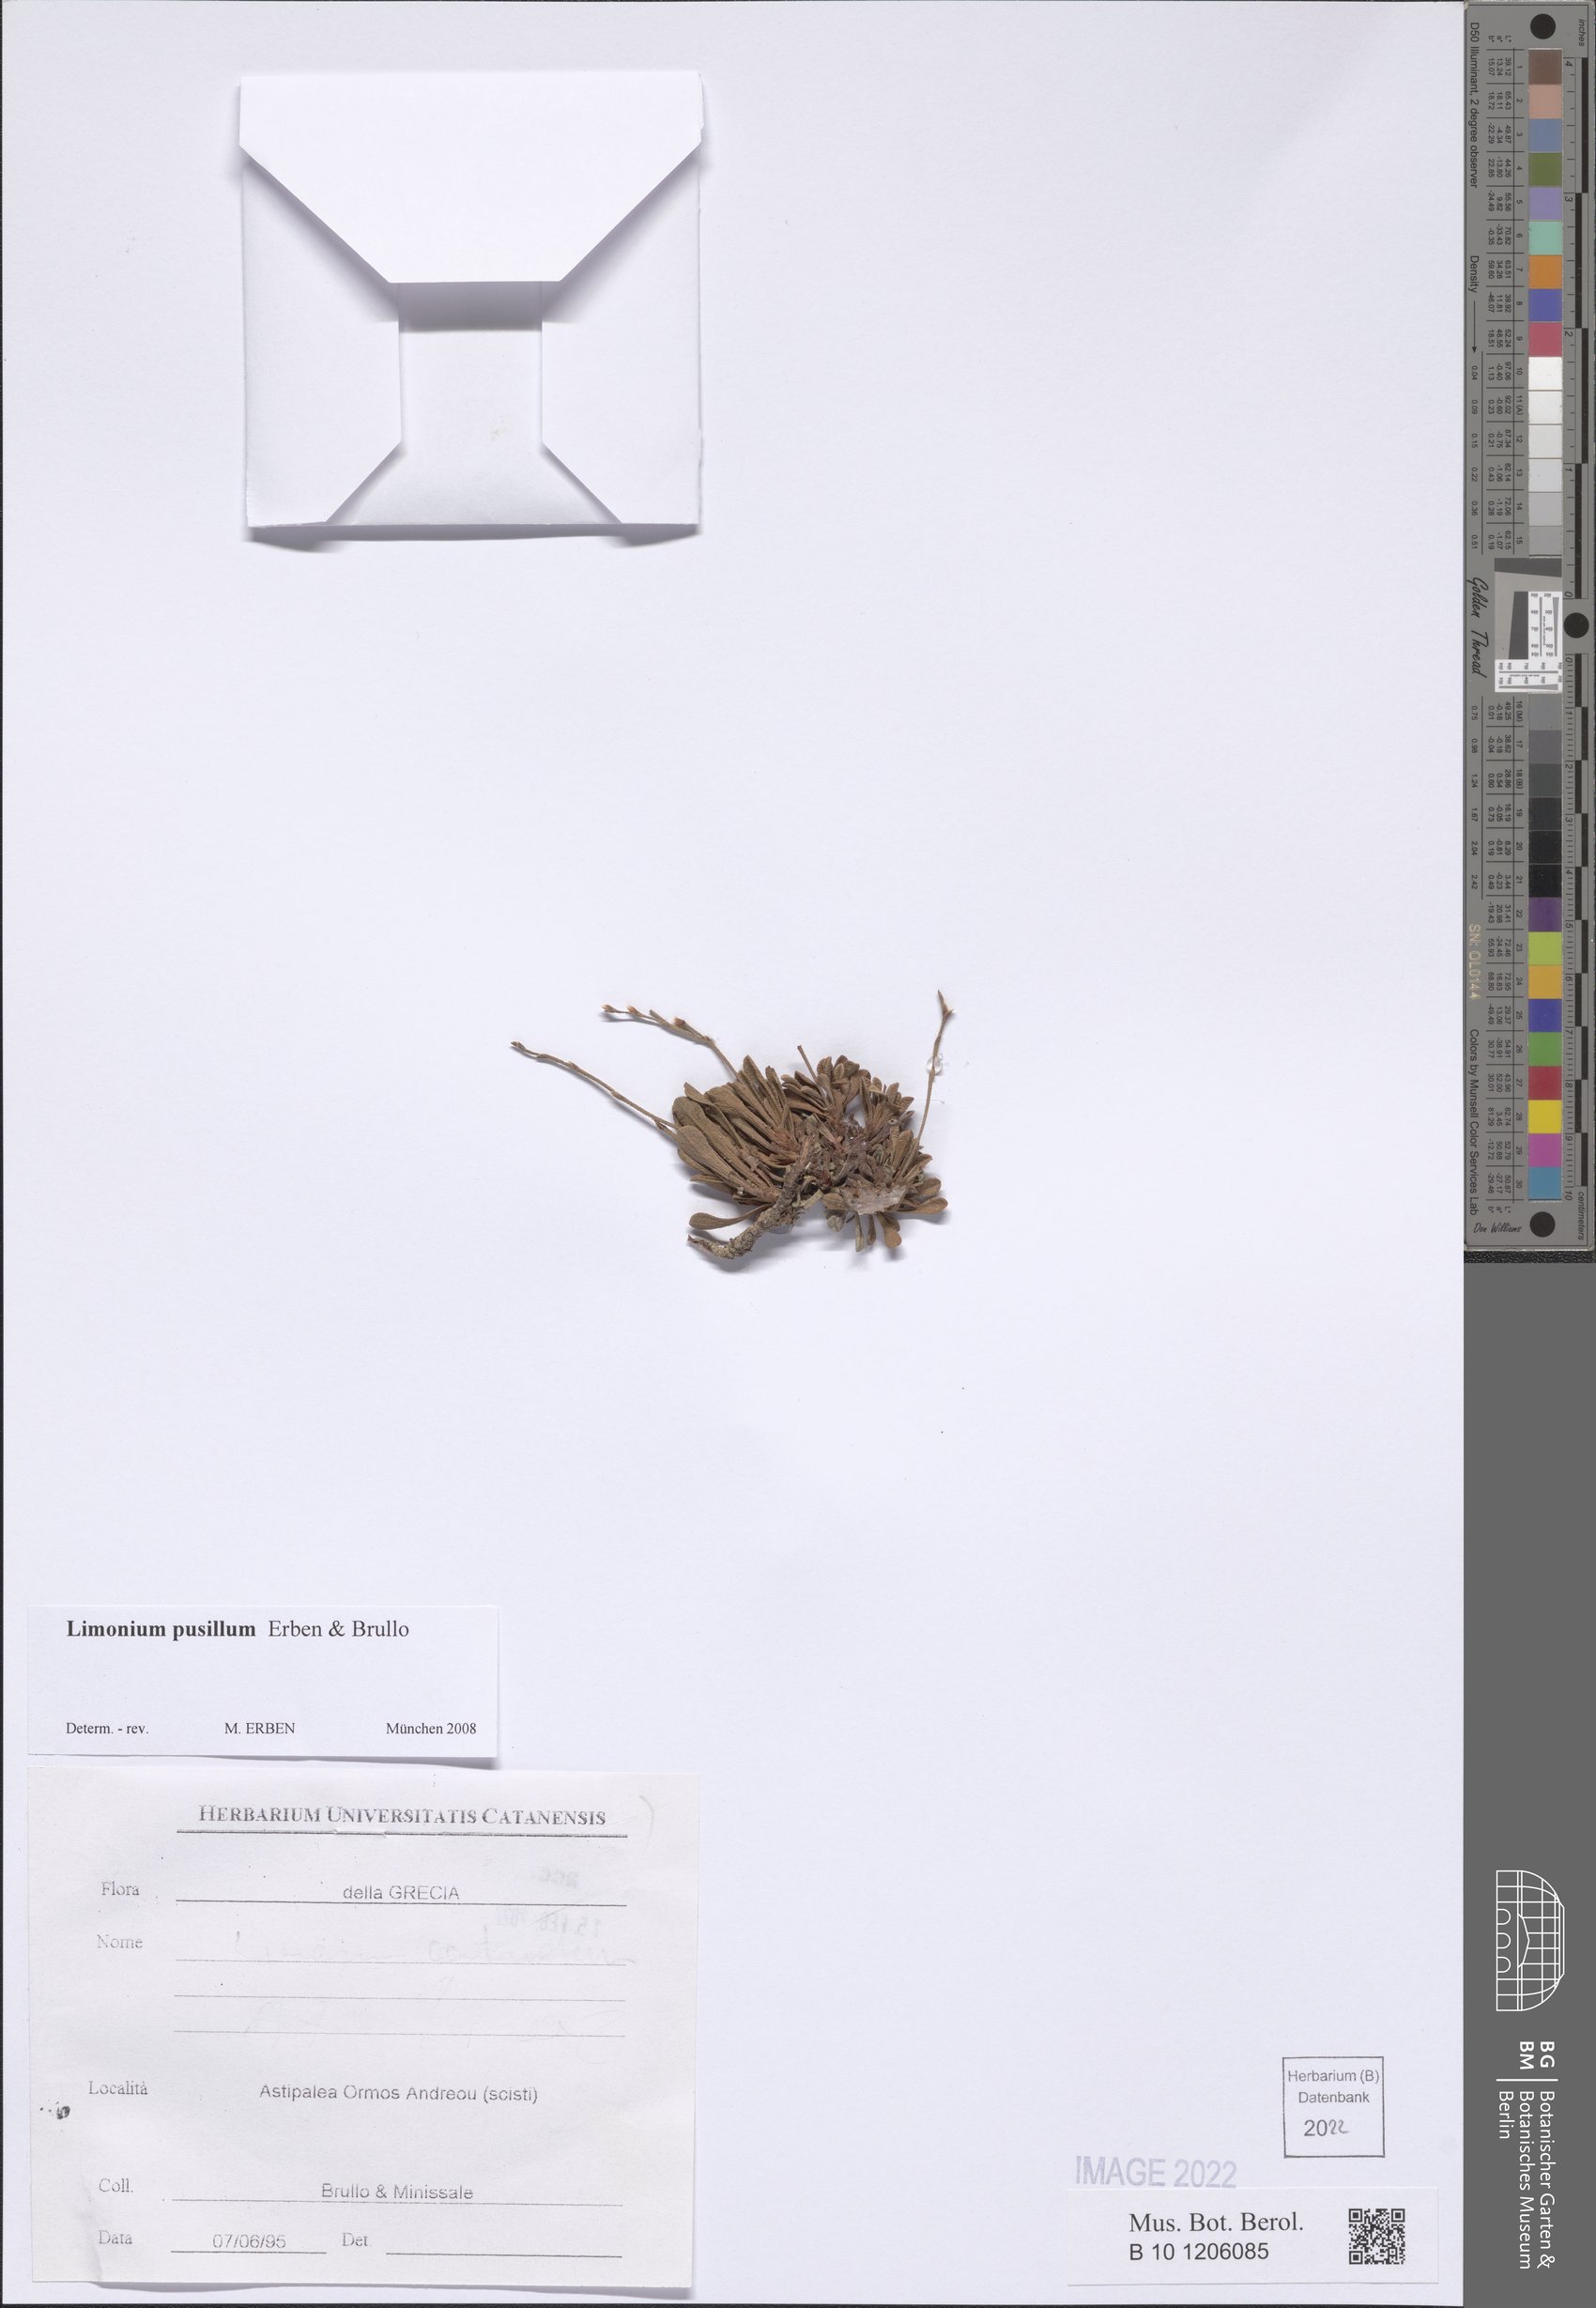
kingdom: Plantae
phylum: Tracheophyta
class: Magnoliopsida
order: Caryophyllales
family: Plumbaginaceae
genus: Limonium
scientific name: Limonium pusillum
